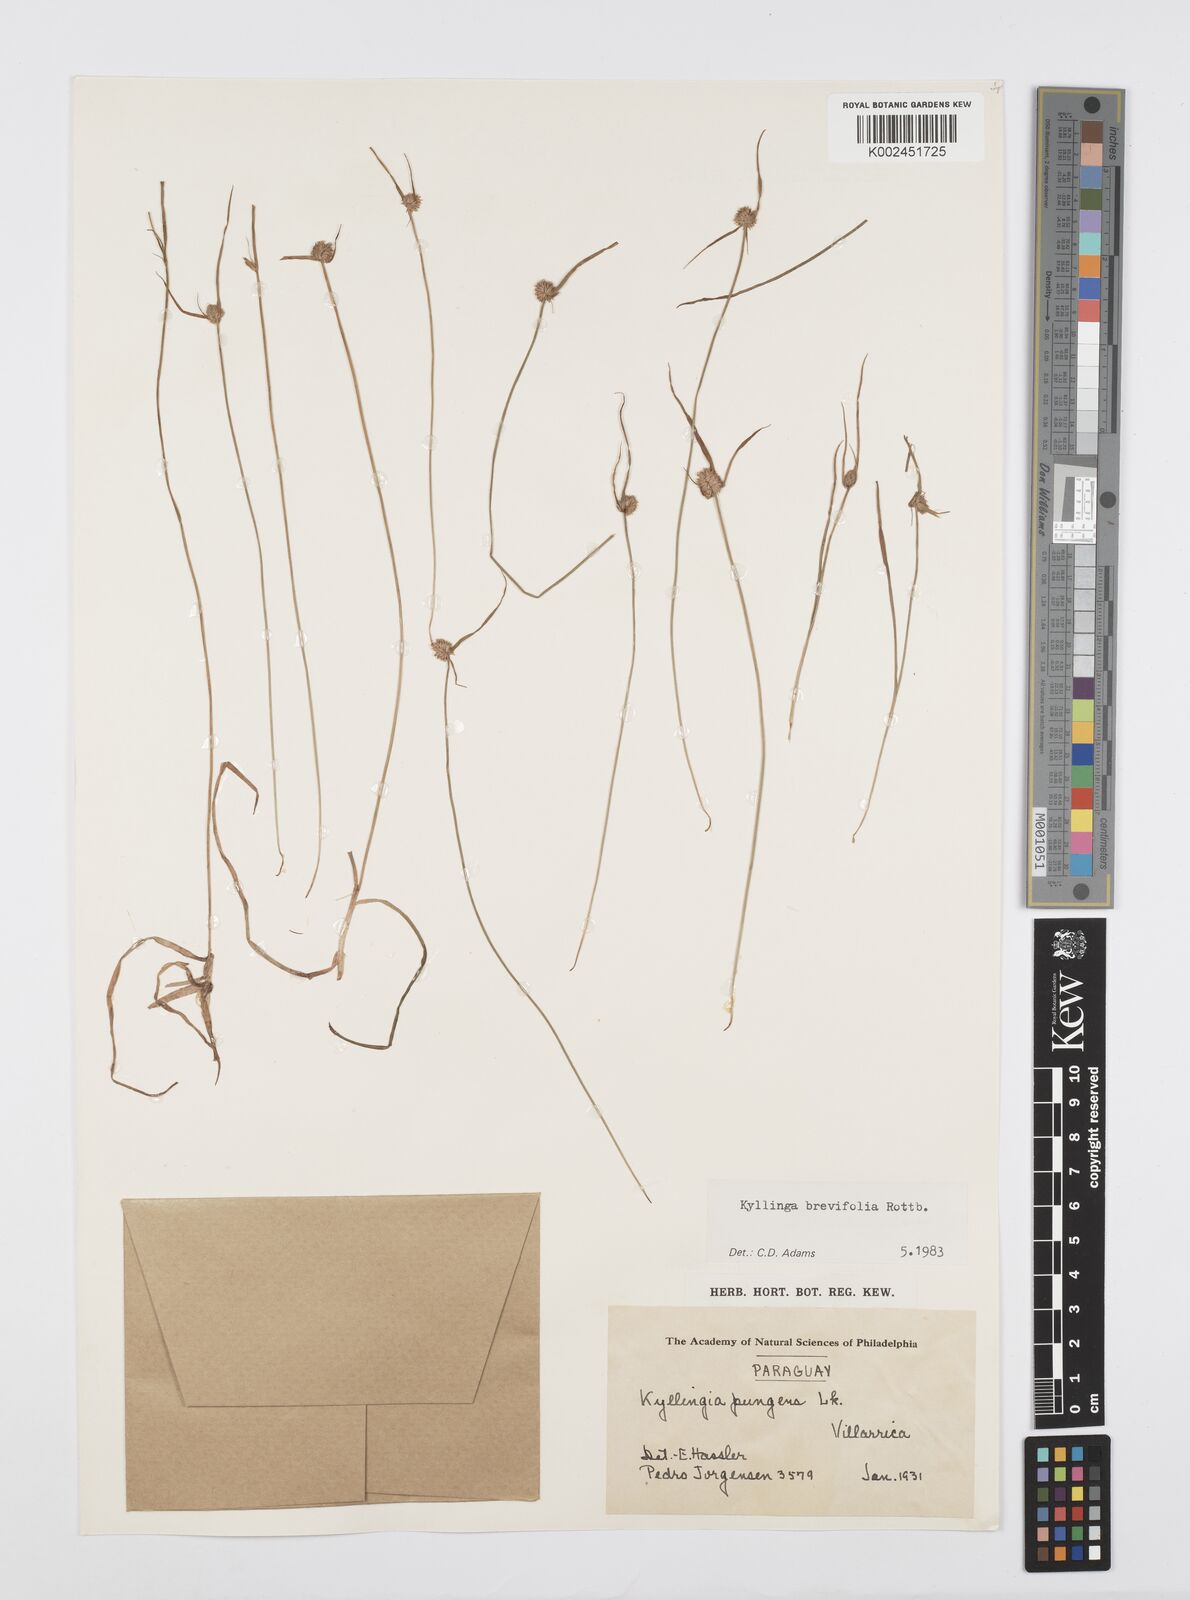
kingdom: Plantae
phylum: Tracheophyta
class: Liliopsida
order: Poales
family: Cyperaceae
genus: Cyperus
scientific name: Cyperus brevifolius
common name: Globe kyllinga
